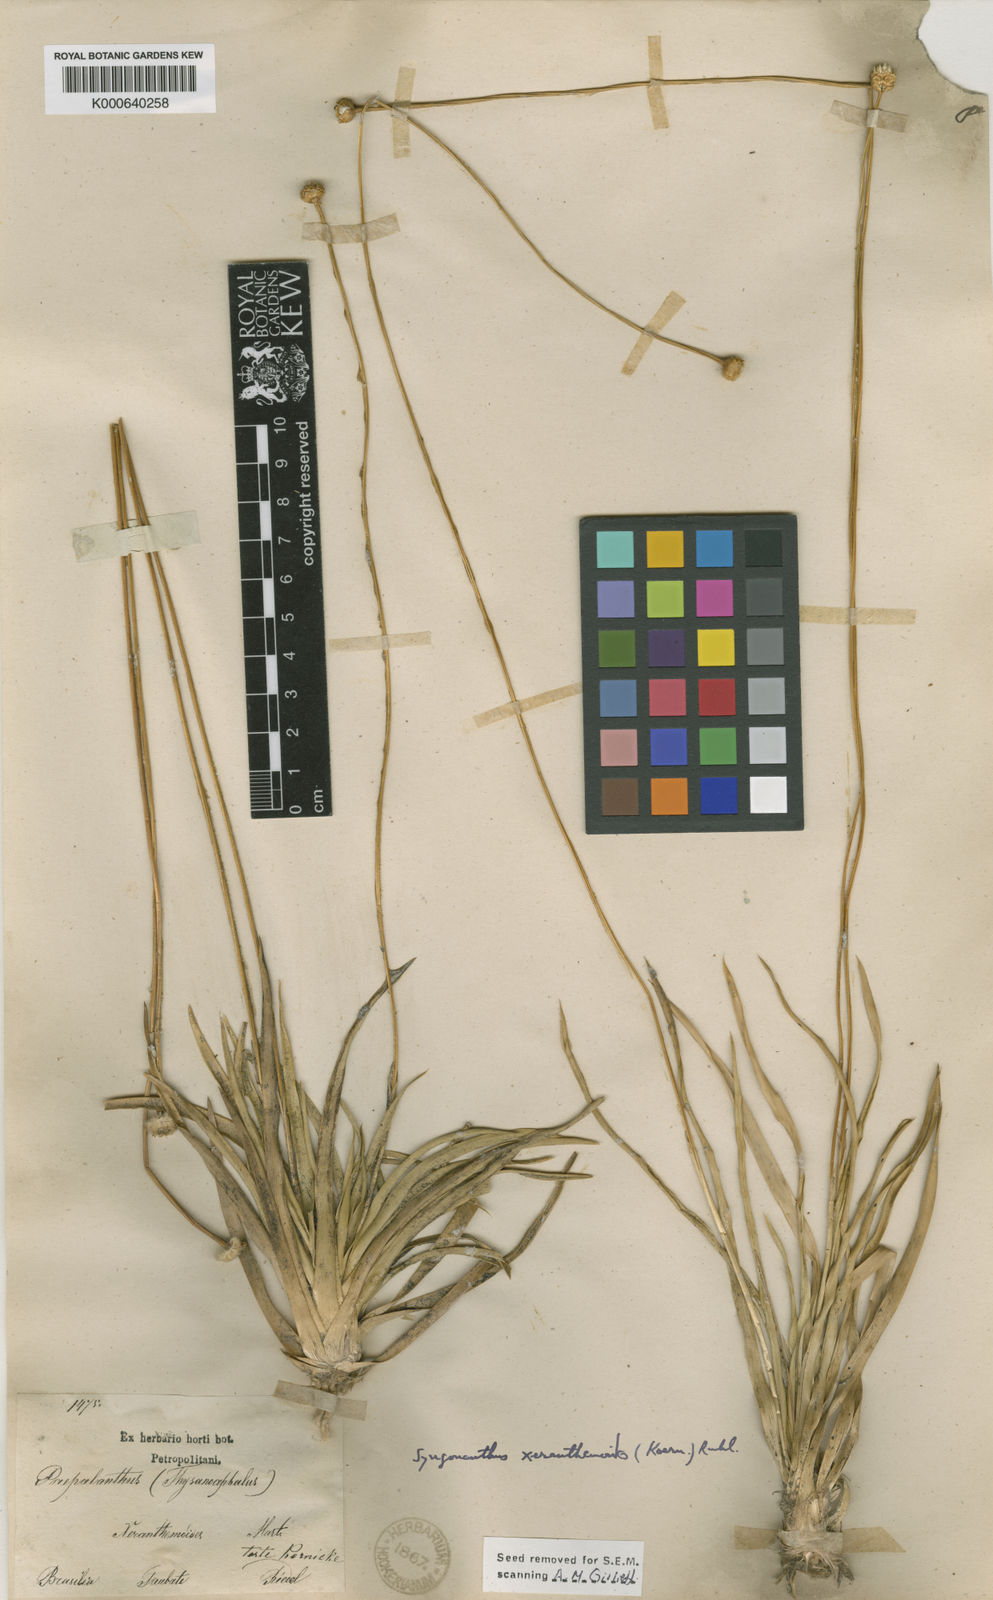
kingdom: Plantae
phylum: Tracheophyta
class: Liliopsida
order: Poales
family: Eriocaulaceae
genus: Comanthera
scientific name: Comanthera xeranthemoides
